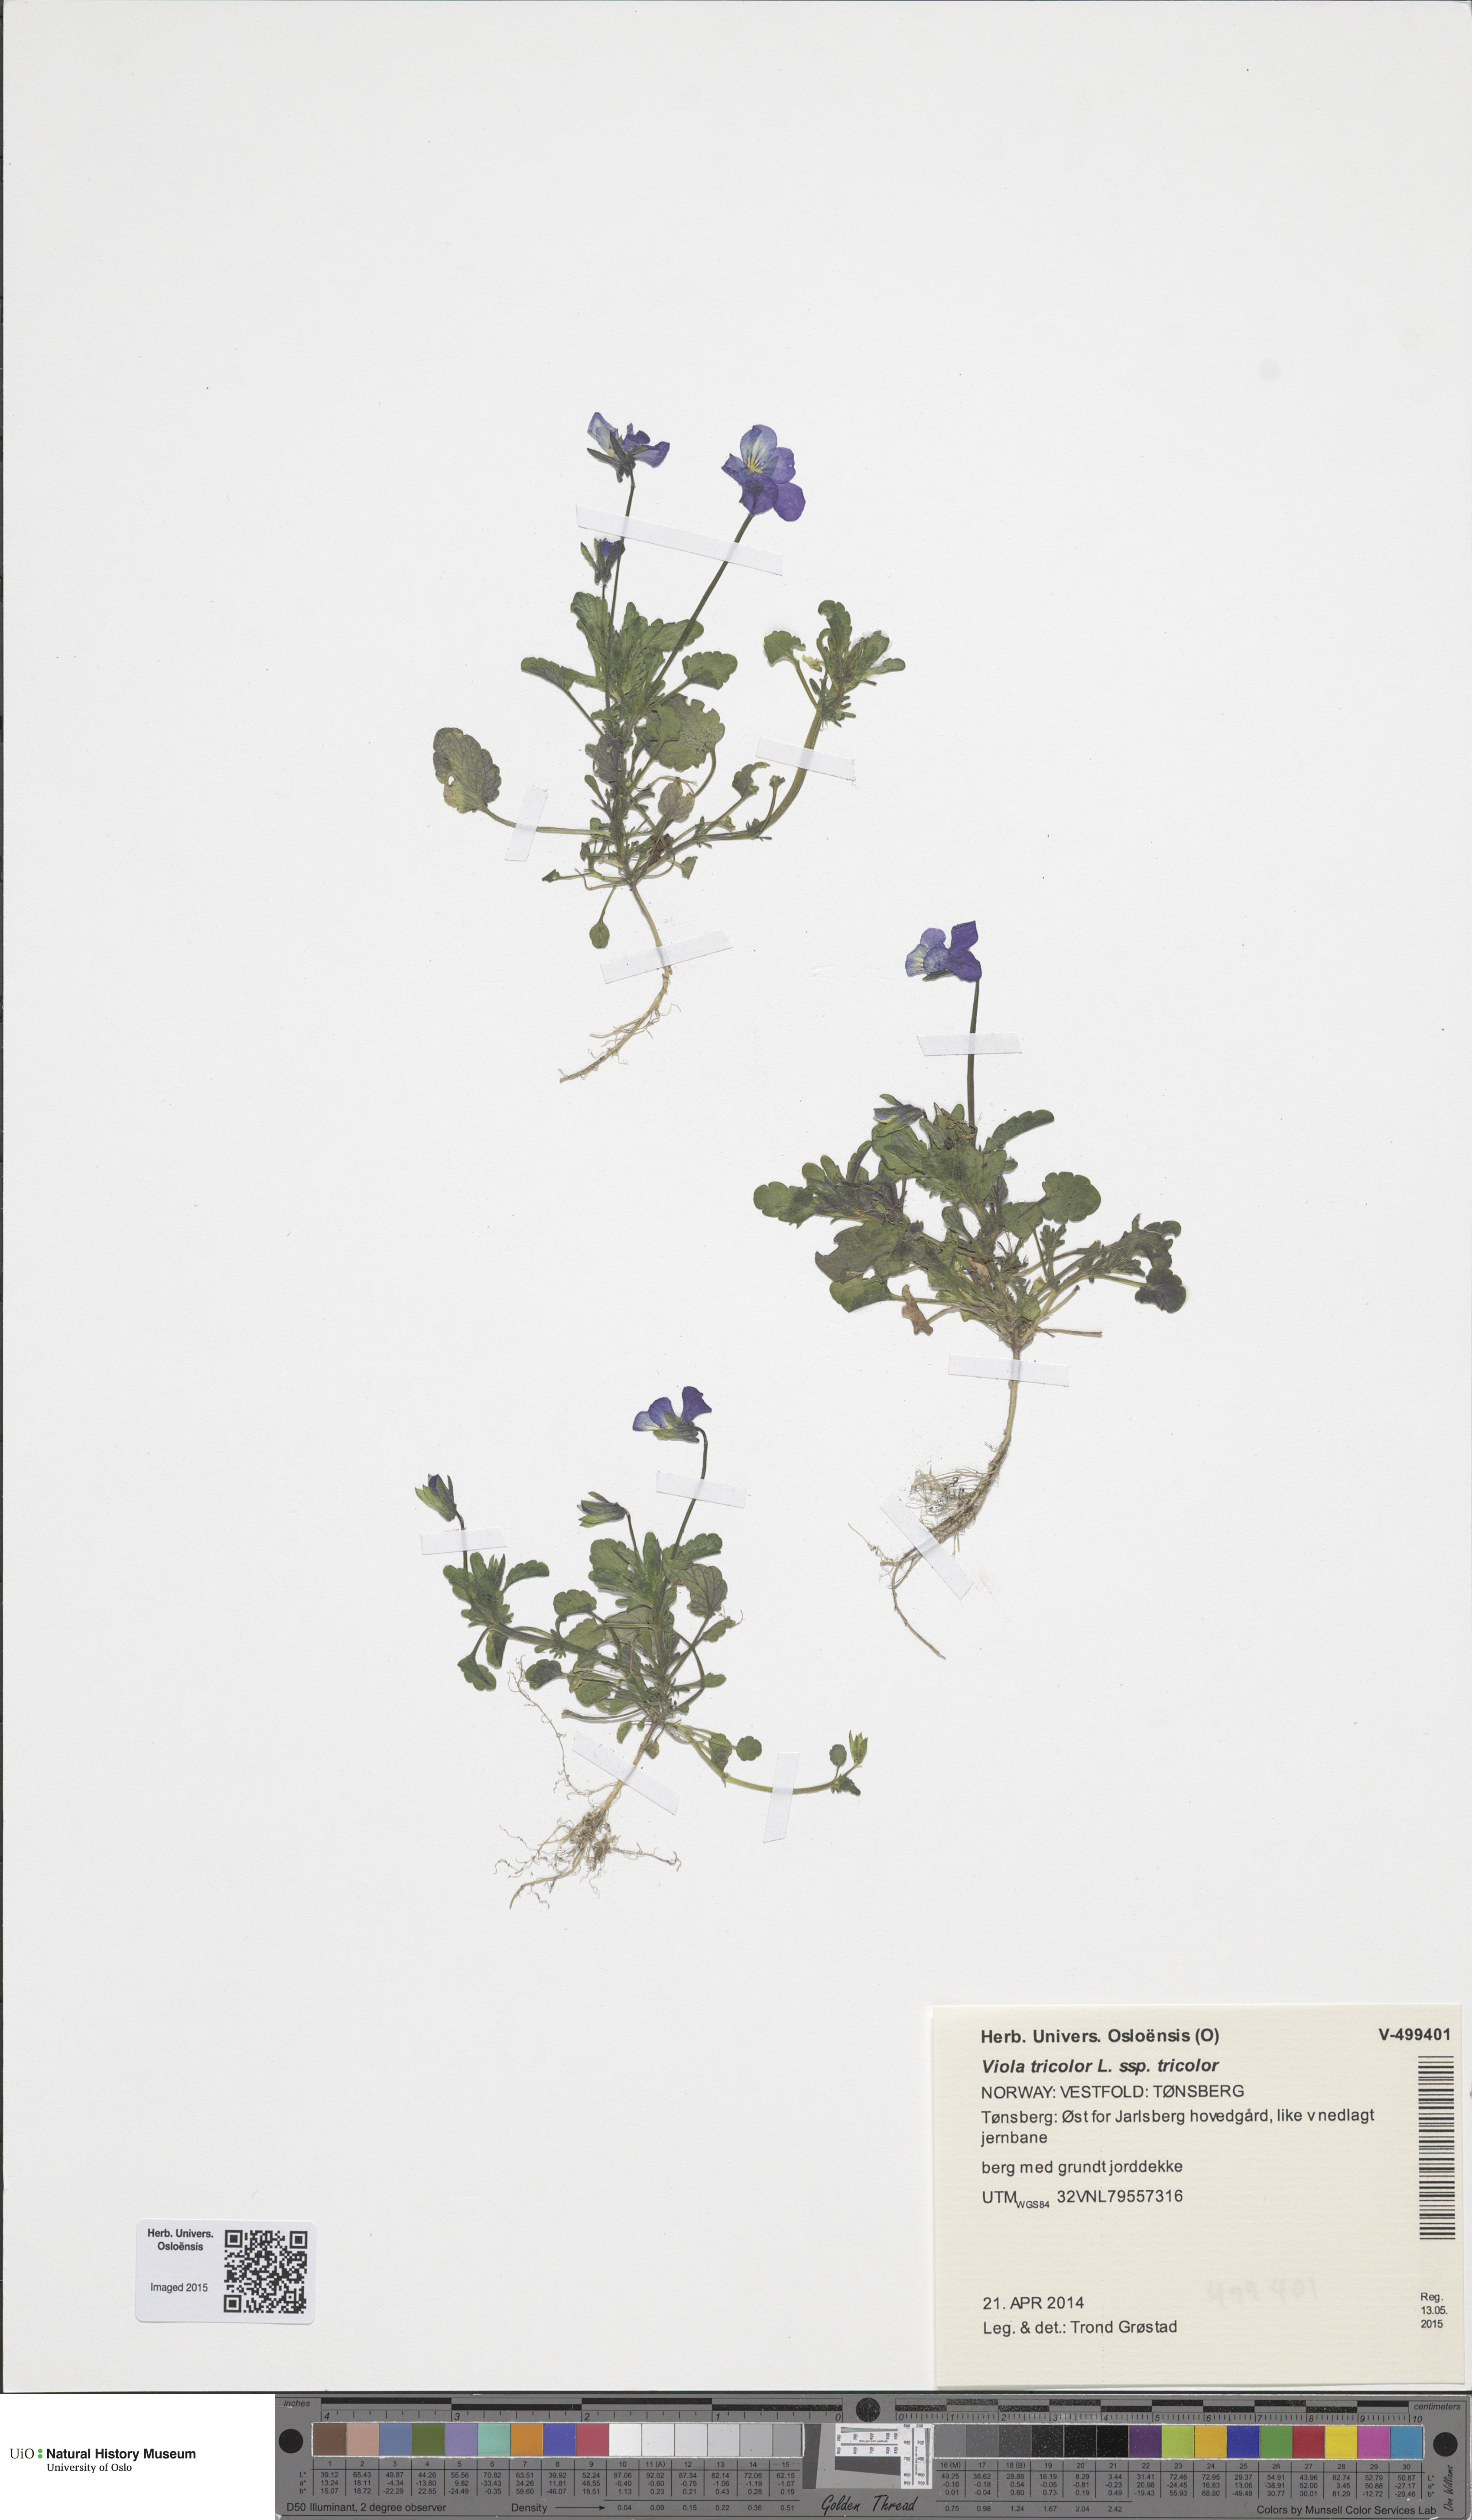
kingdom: Plantae
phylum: Tracheophyta
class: Magnoliopsida
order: Malpighiales
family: Violaceae
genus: Viola
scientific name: Viola tricolor
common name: Pansy
